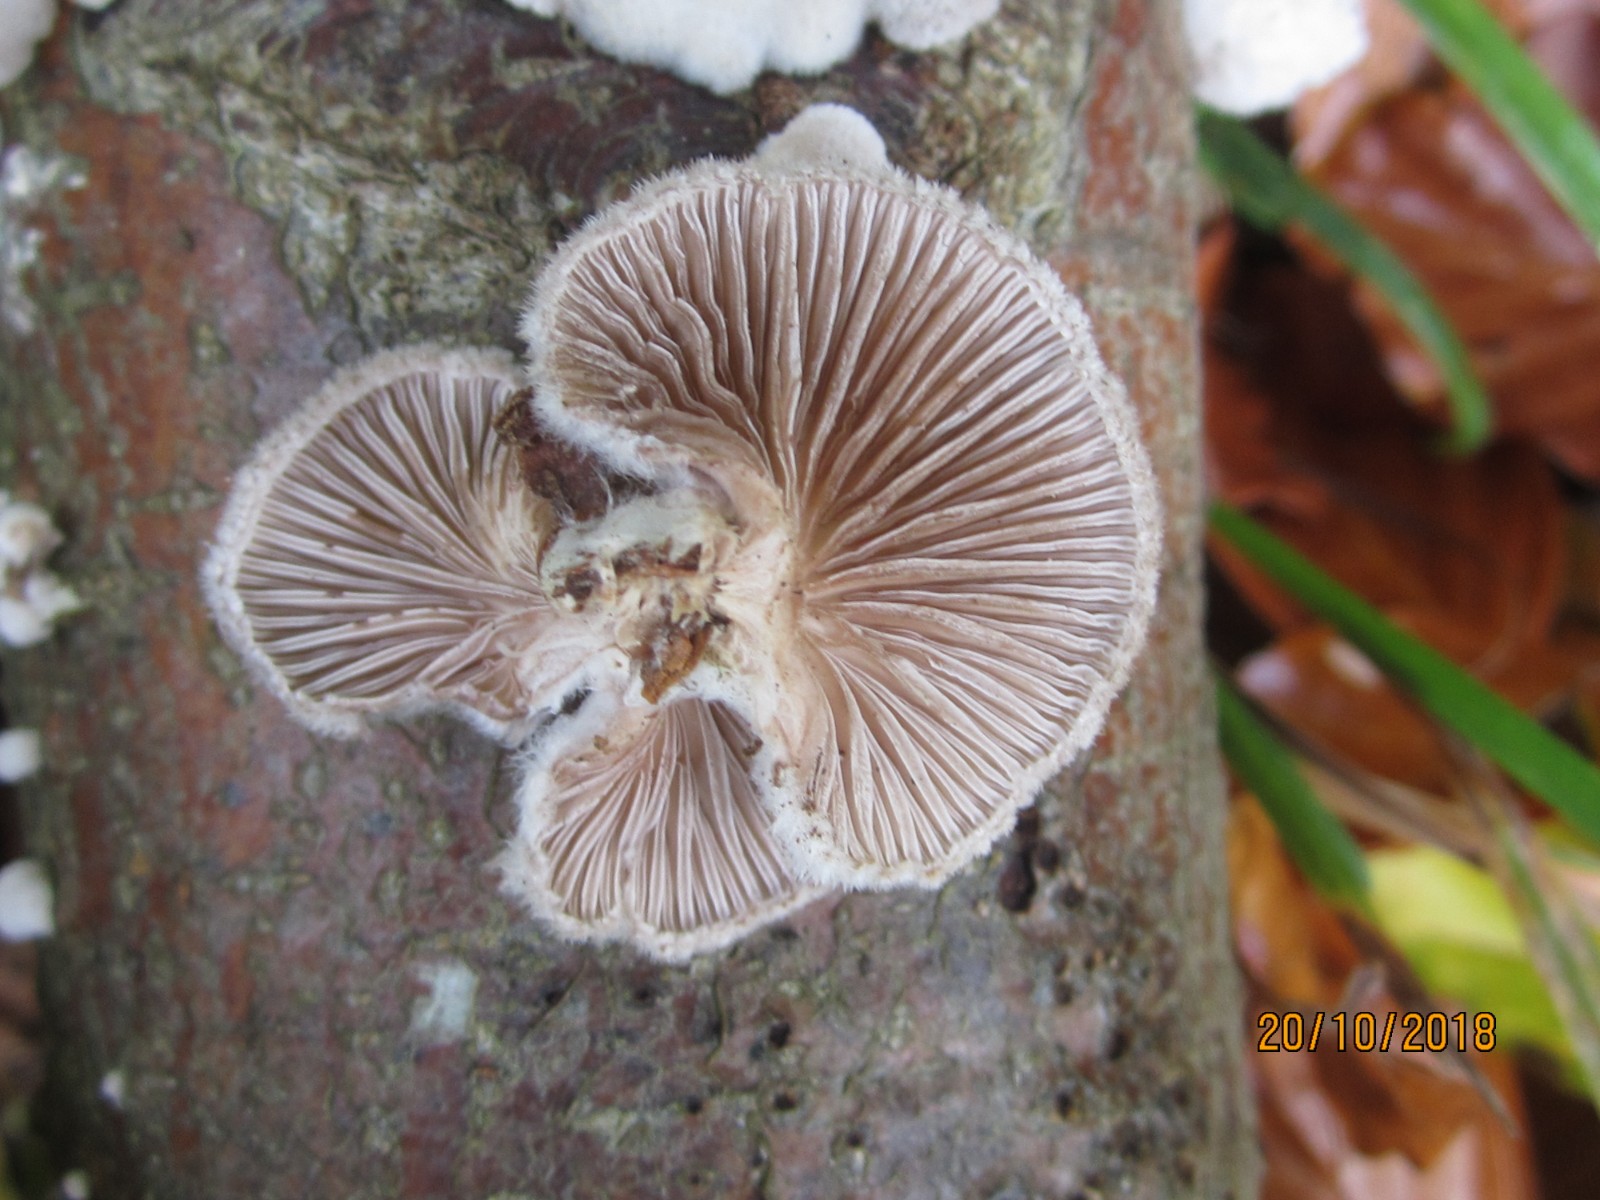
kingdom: Fungi
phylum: Basidiomycota
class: Agaricomycetes
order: Agaricales
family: Schizophyllaceae
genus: Schizophyllum
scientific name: Schizophyllum commune
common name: kløvblad
